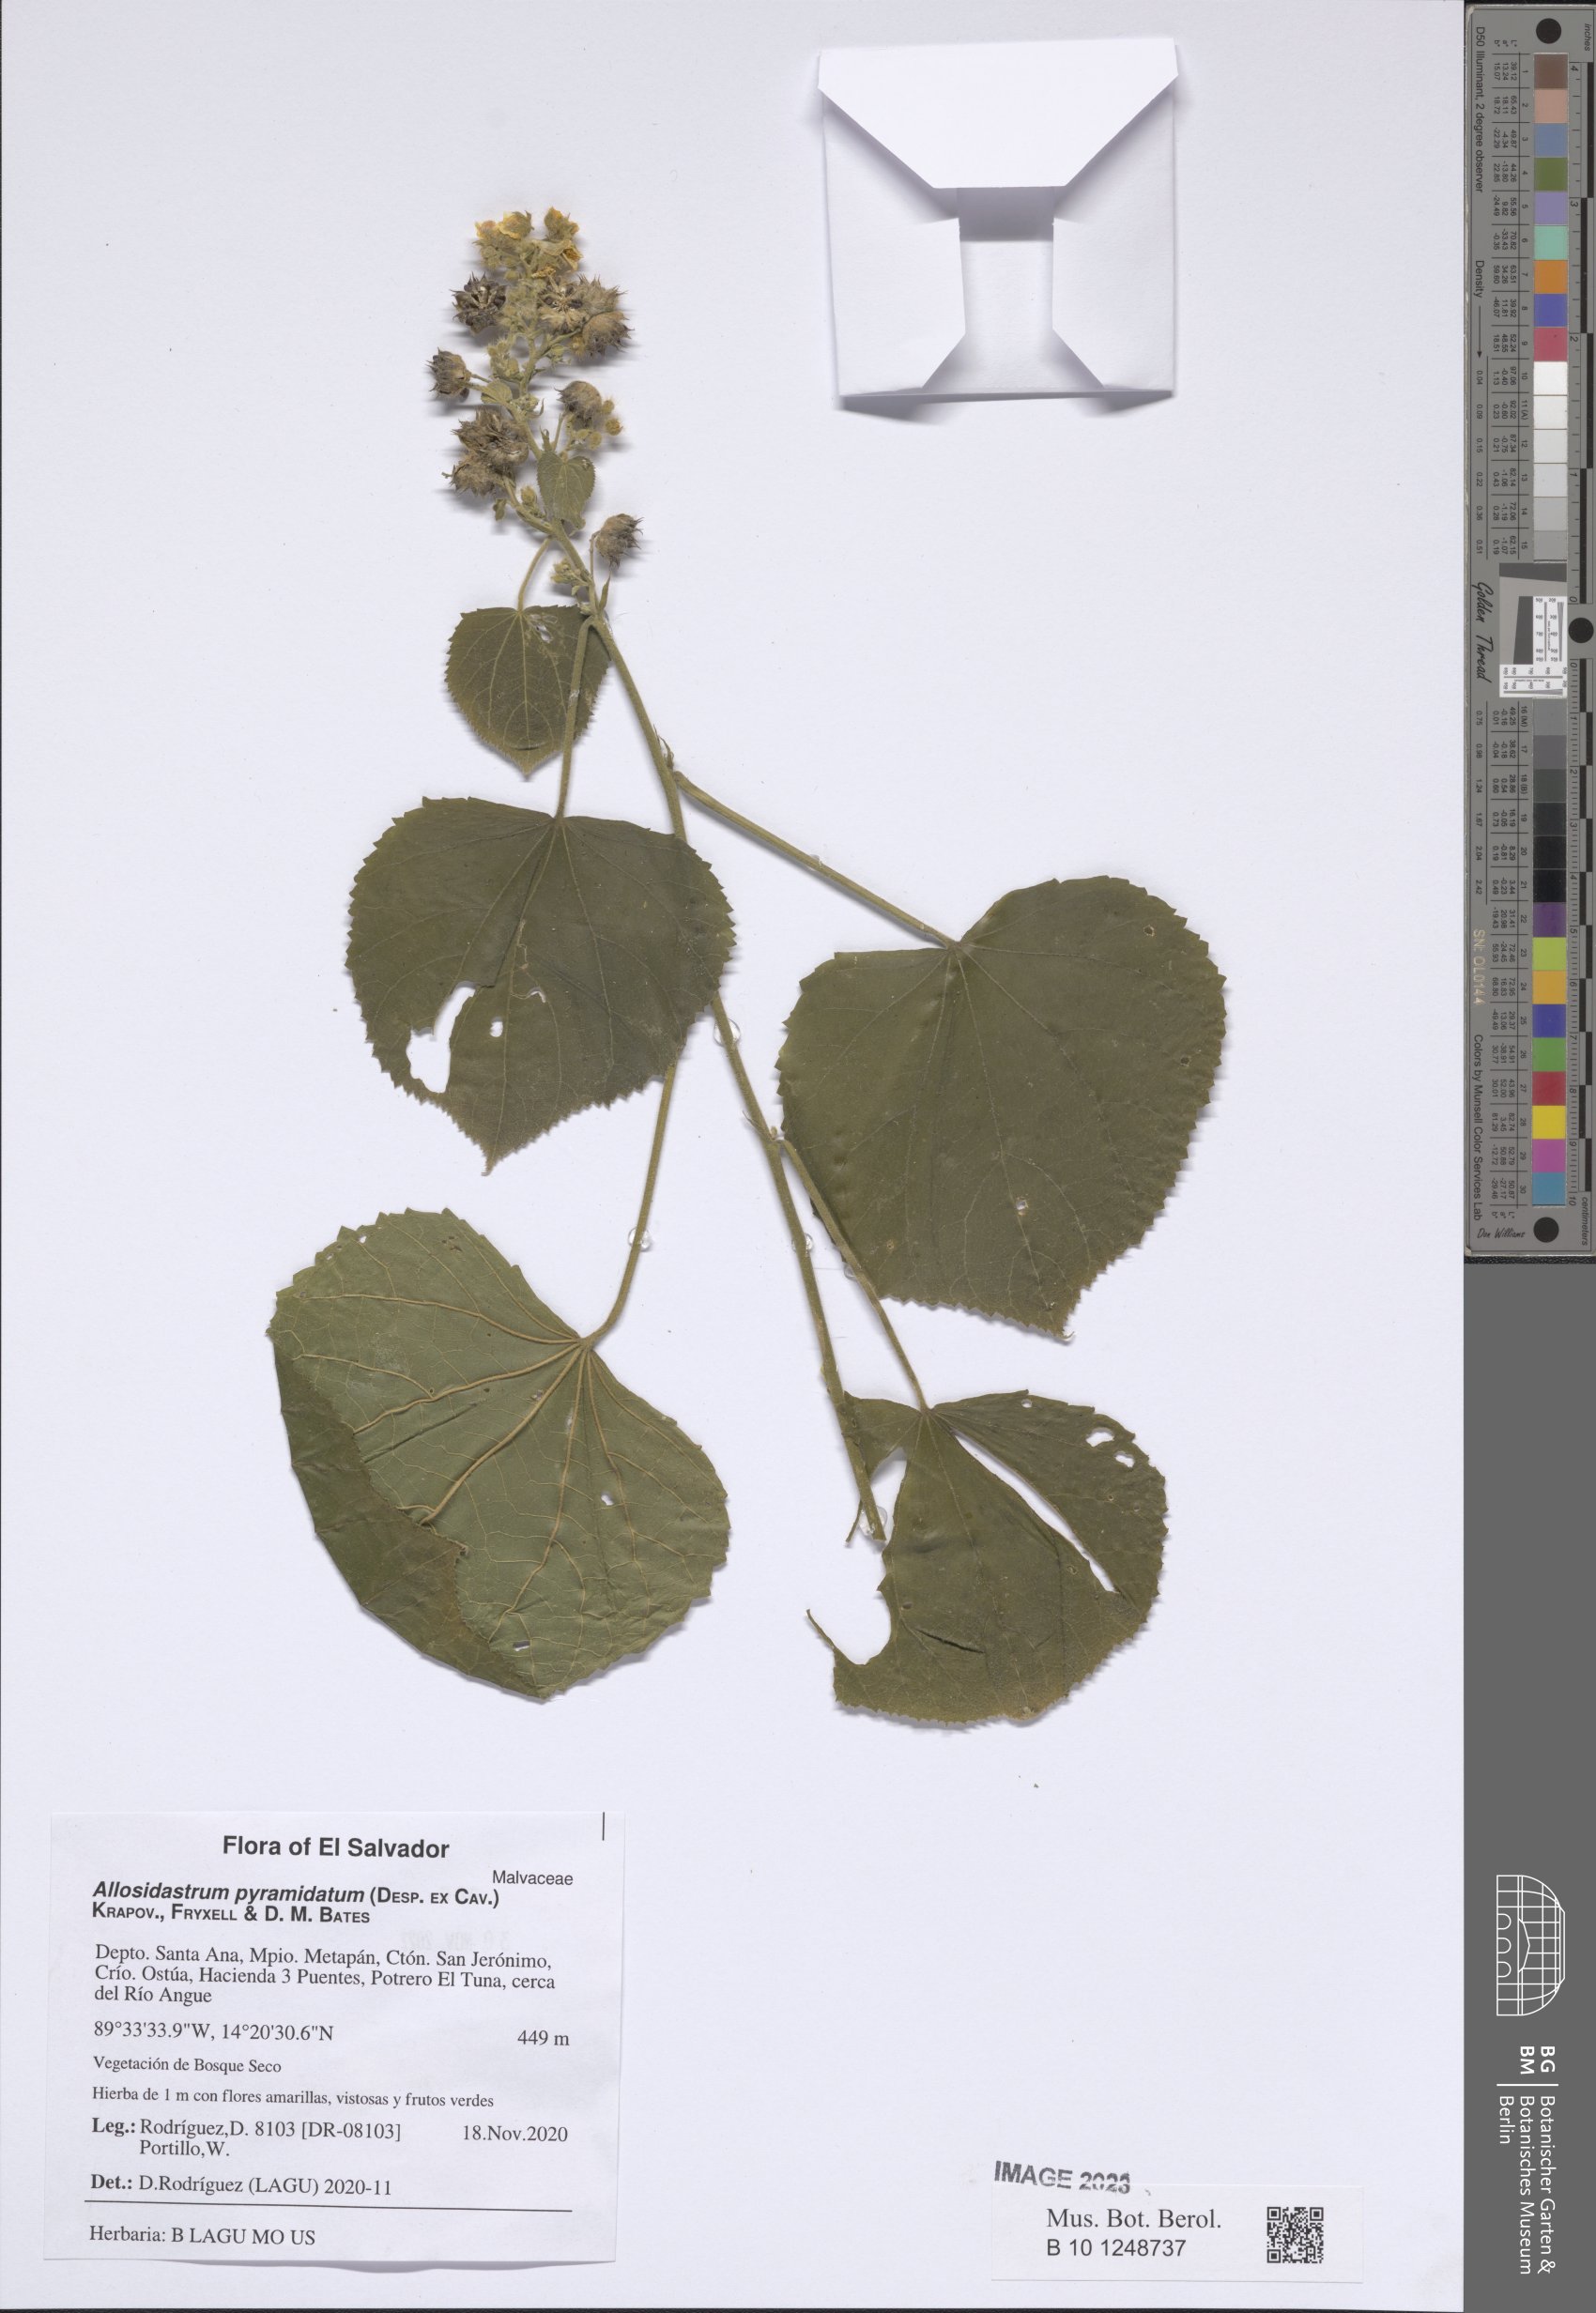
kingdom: Plantae
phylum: Tracheophyta
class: Magnoliopsida
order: Malvales
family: Malvaceae
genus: Allosidastrum
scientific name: Allosidastrum pyramidatum
